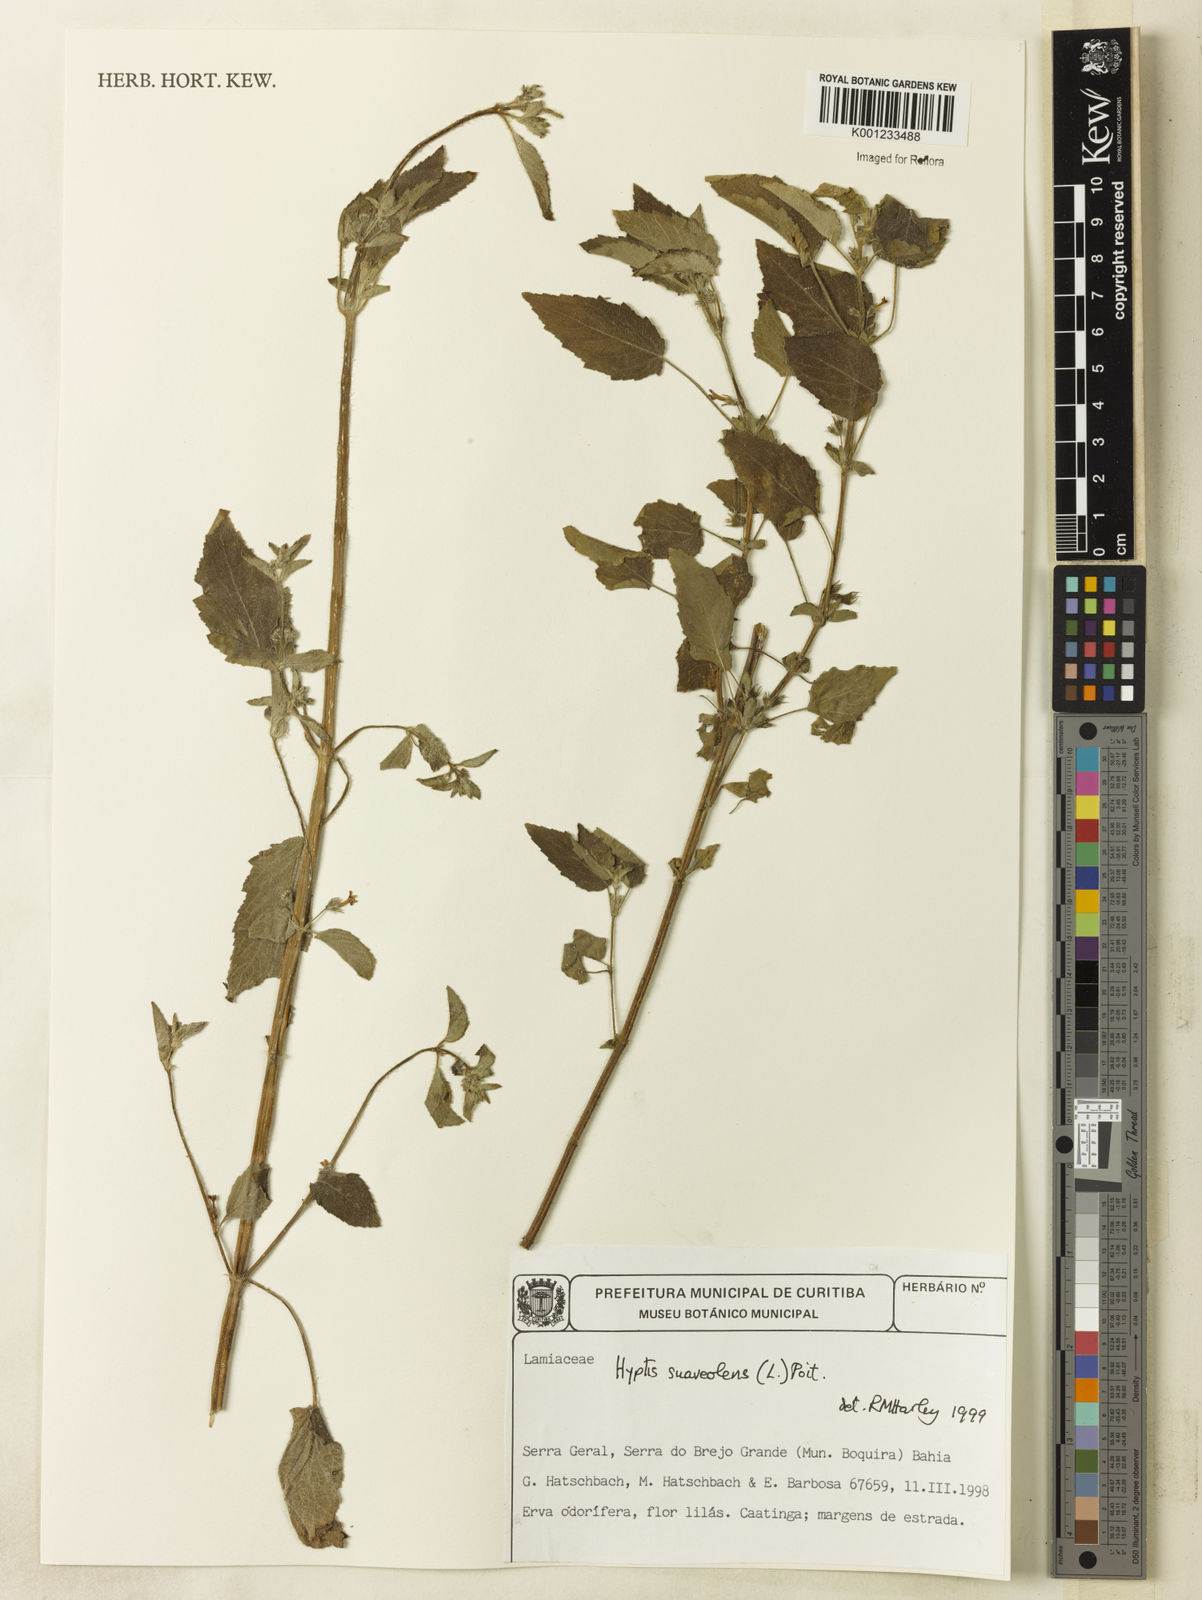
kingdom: Plantae
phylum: Tracheophyta
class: Magnoliopsida
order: Lamiales
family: Lamiaceae
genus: Mesosphaerum
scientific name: Mesosphaerum suaveolens
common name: Pignut
